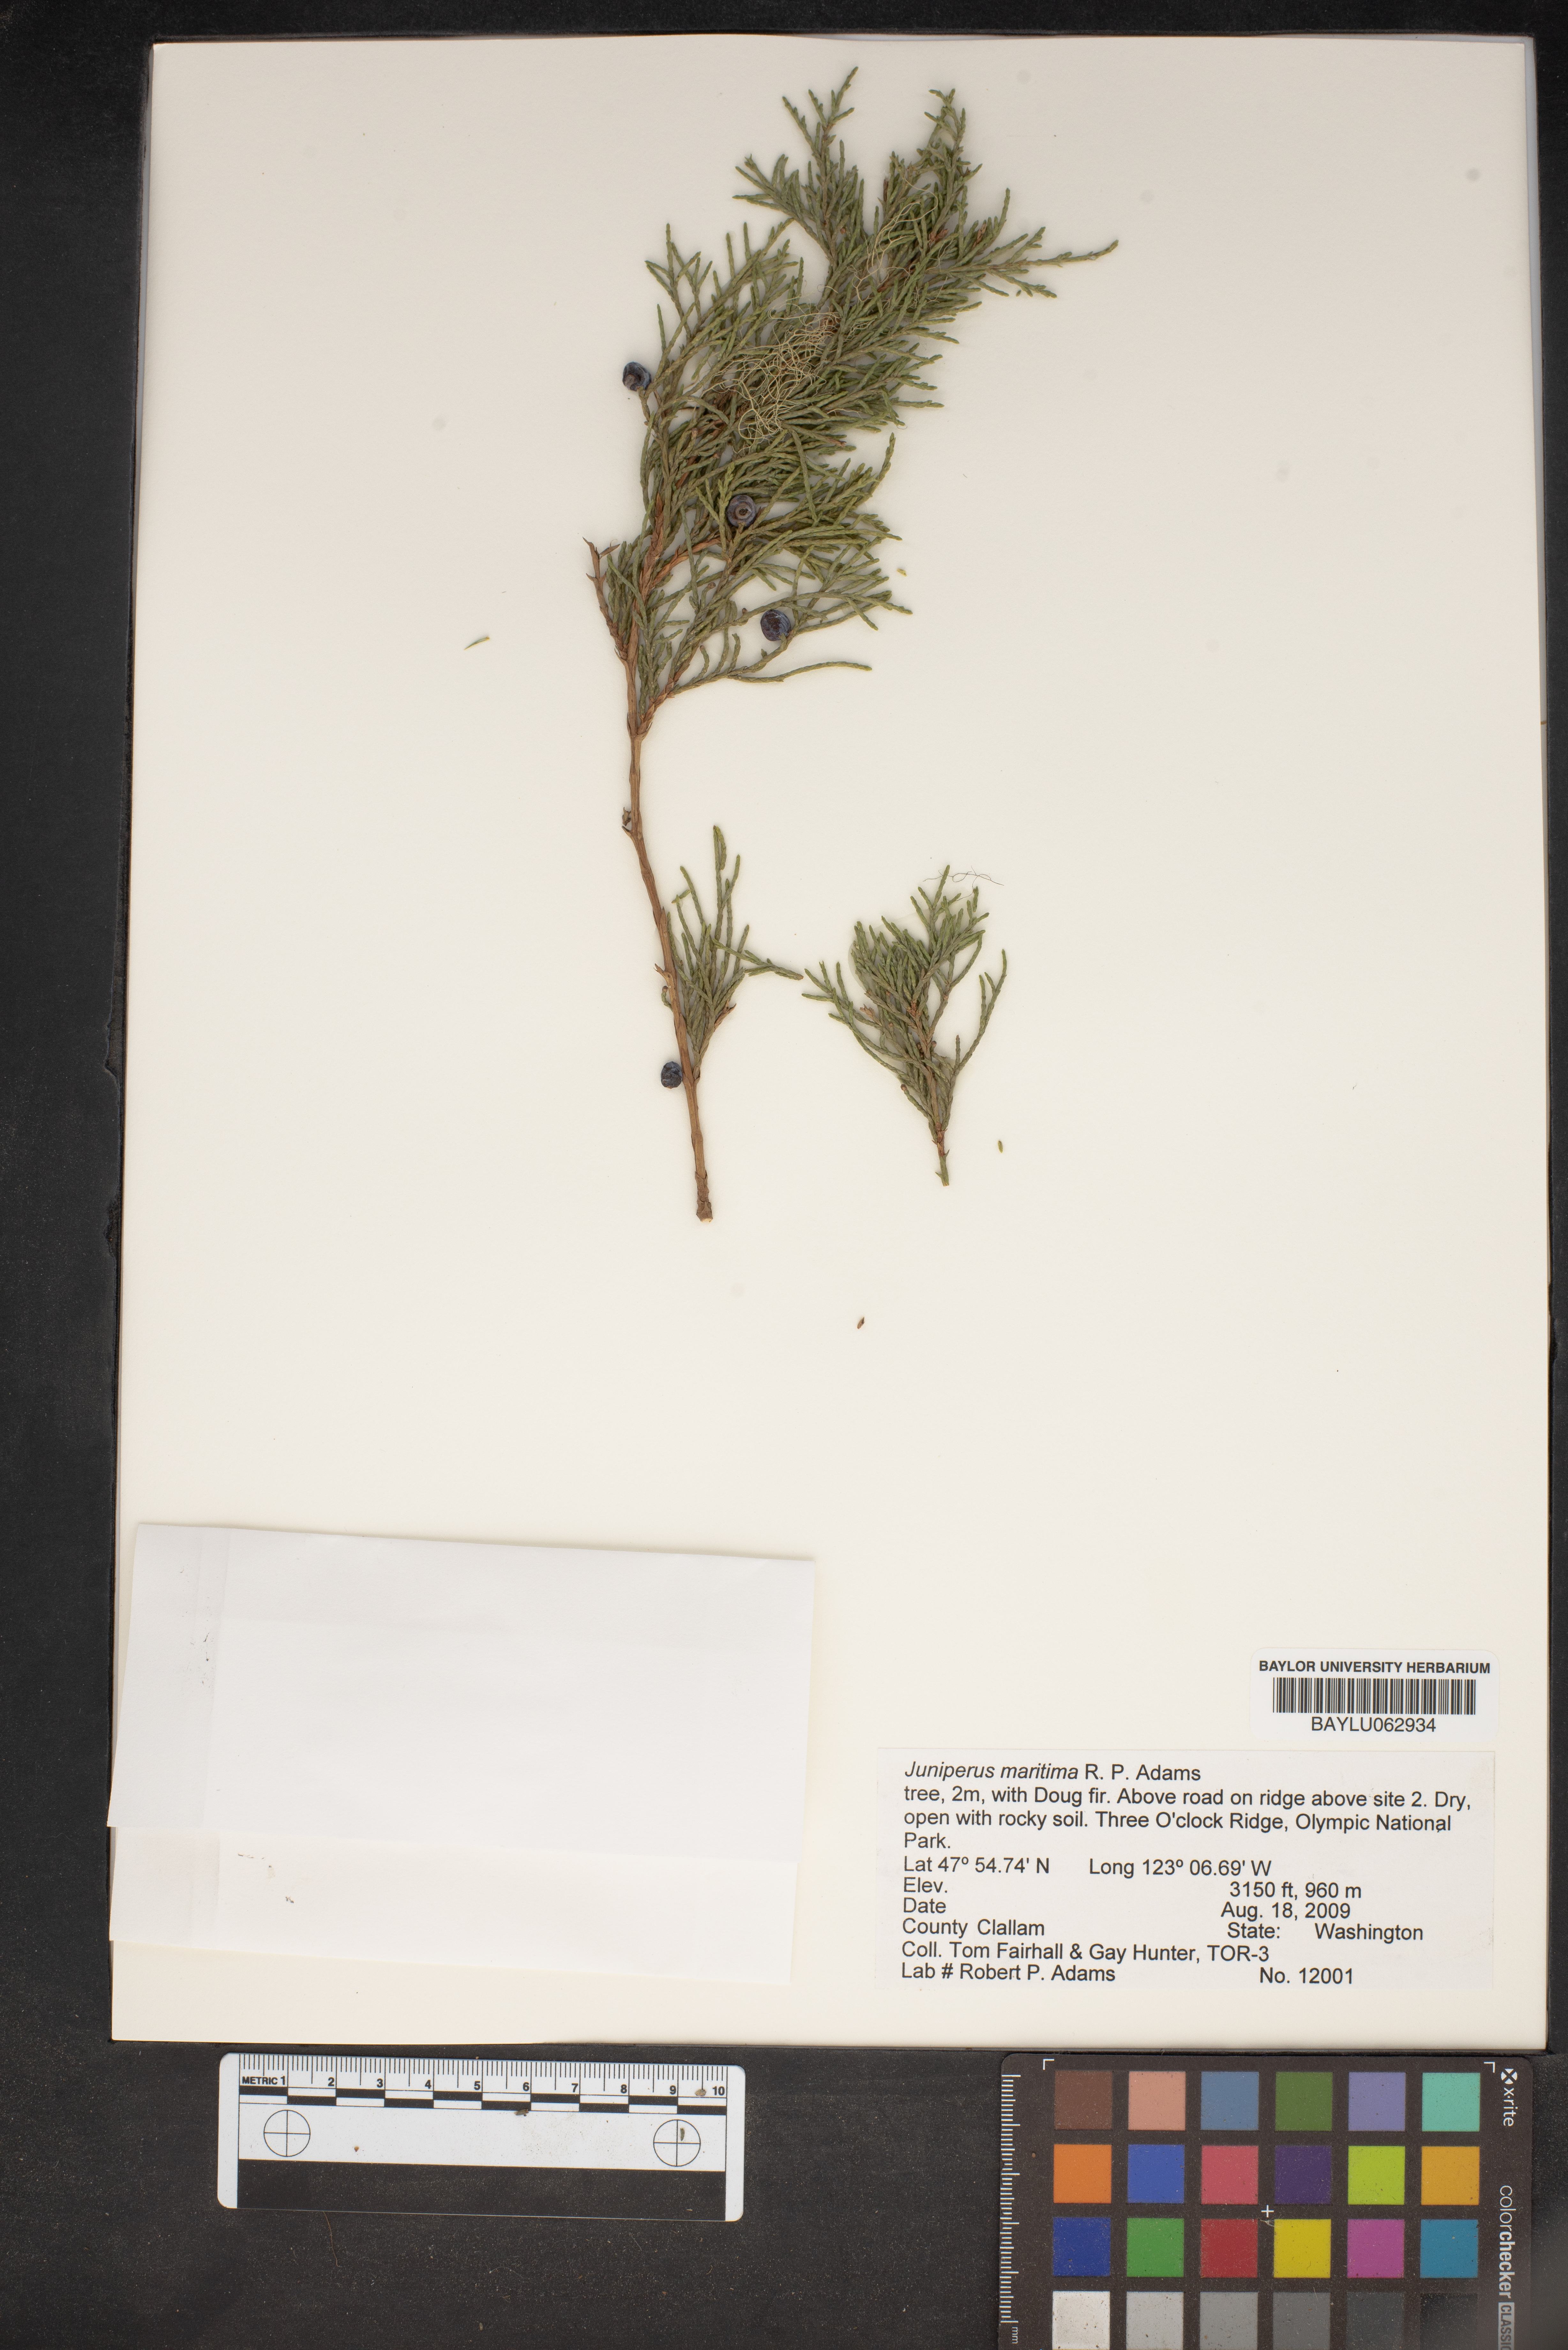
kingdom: Plantae
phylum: Tracheophyta
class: Pinopsida
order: Pinales
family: Cupressaceae
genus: Juniperus
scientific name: Juniperus scopulorum
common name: Rocky mountain juniper
